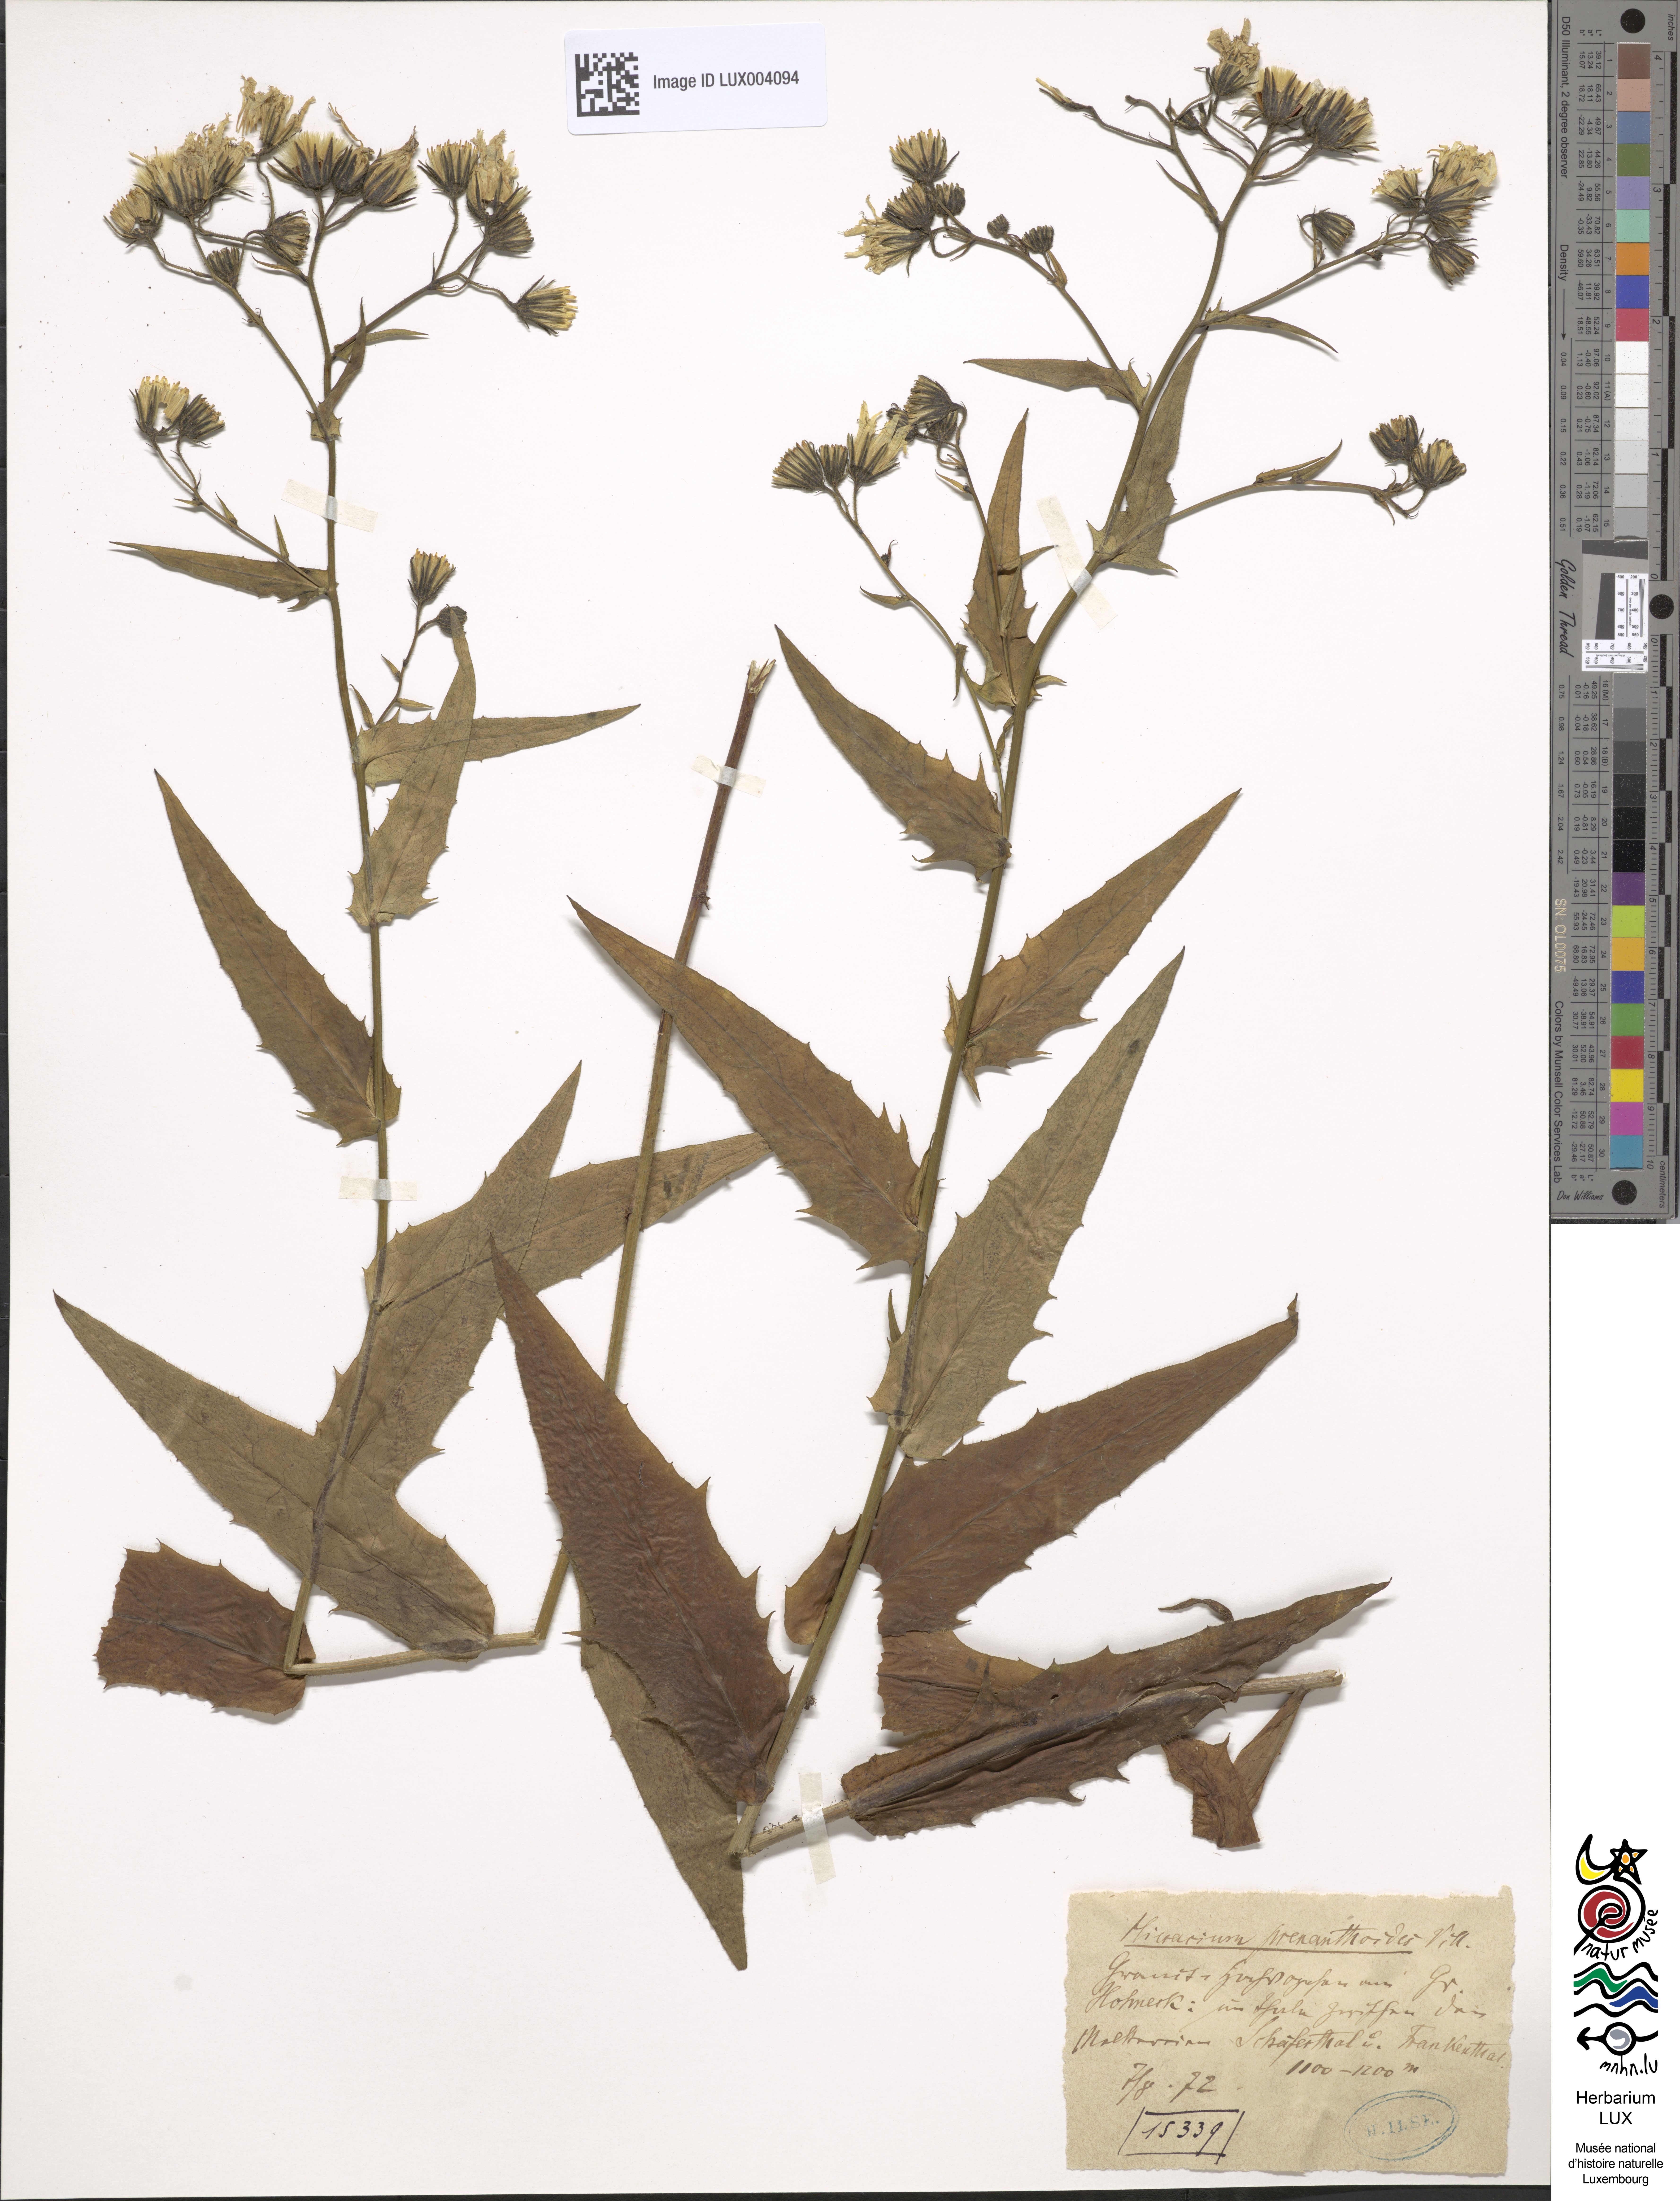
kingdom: Plantae
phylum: Tracheophyta
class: Magnoliopsida
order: Asterales
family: Asteraceae
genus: Hieracium
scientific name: Hieracium prenanthoides
